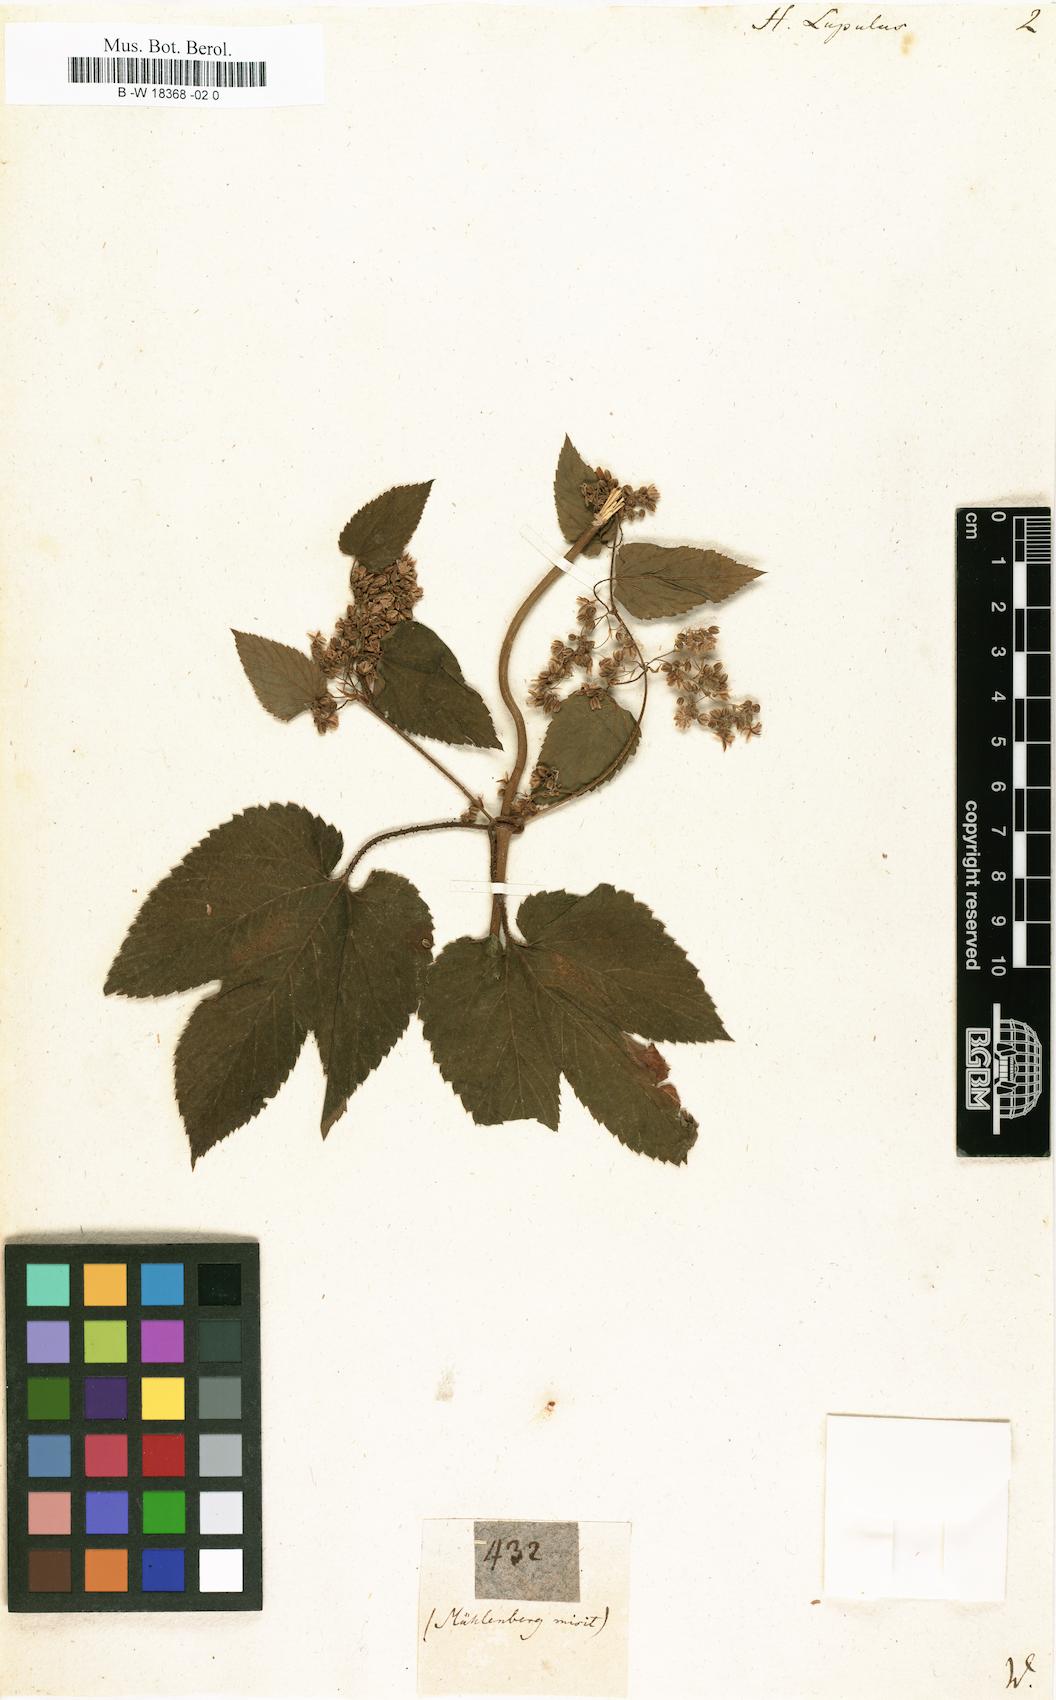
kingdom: Plantae
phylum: Tracheophyta
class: Magnoliopsida
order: Rosales
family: Cannabaceae
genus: Humulus
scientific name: Humulus lupulus
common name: Hop
